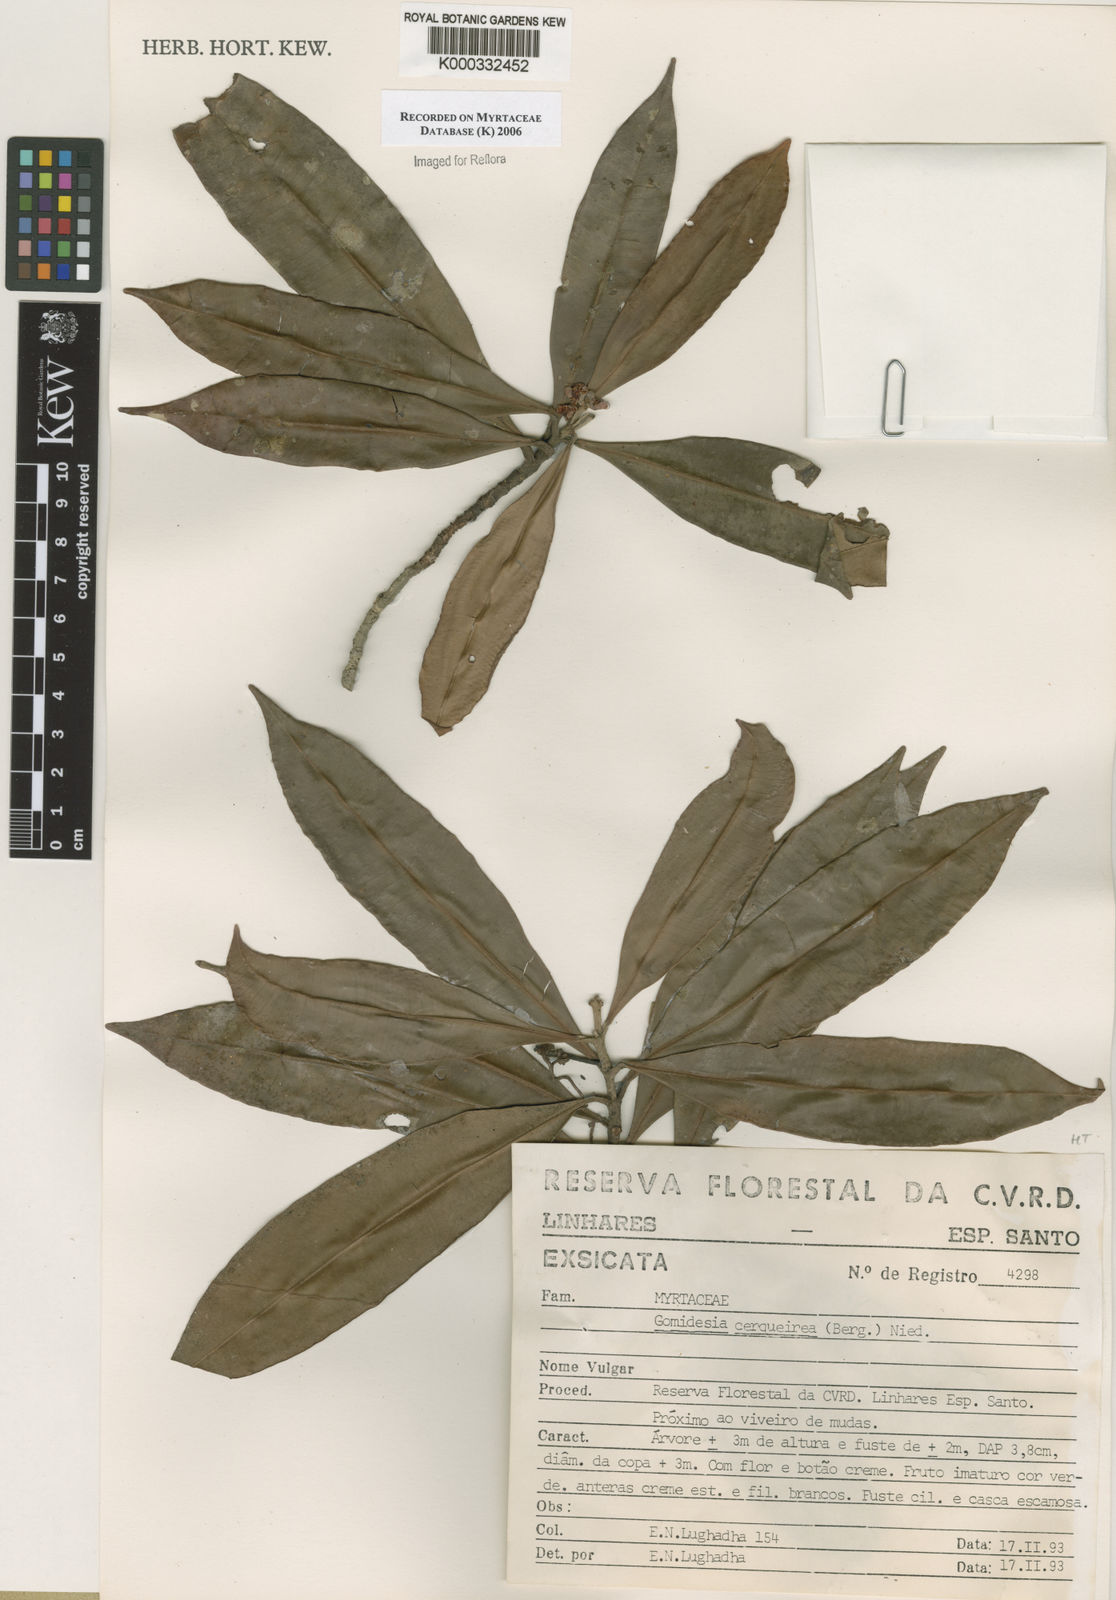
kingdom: Plantae
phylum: Tracheophyta
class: Magnoliopsida
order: Myrtales
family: Myrtaceae
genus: Myrcia
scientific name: Myrcia cerqueiria
